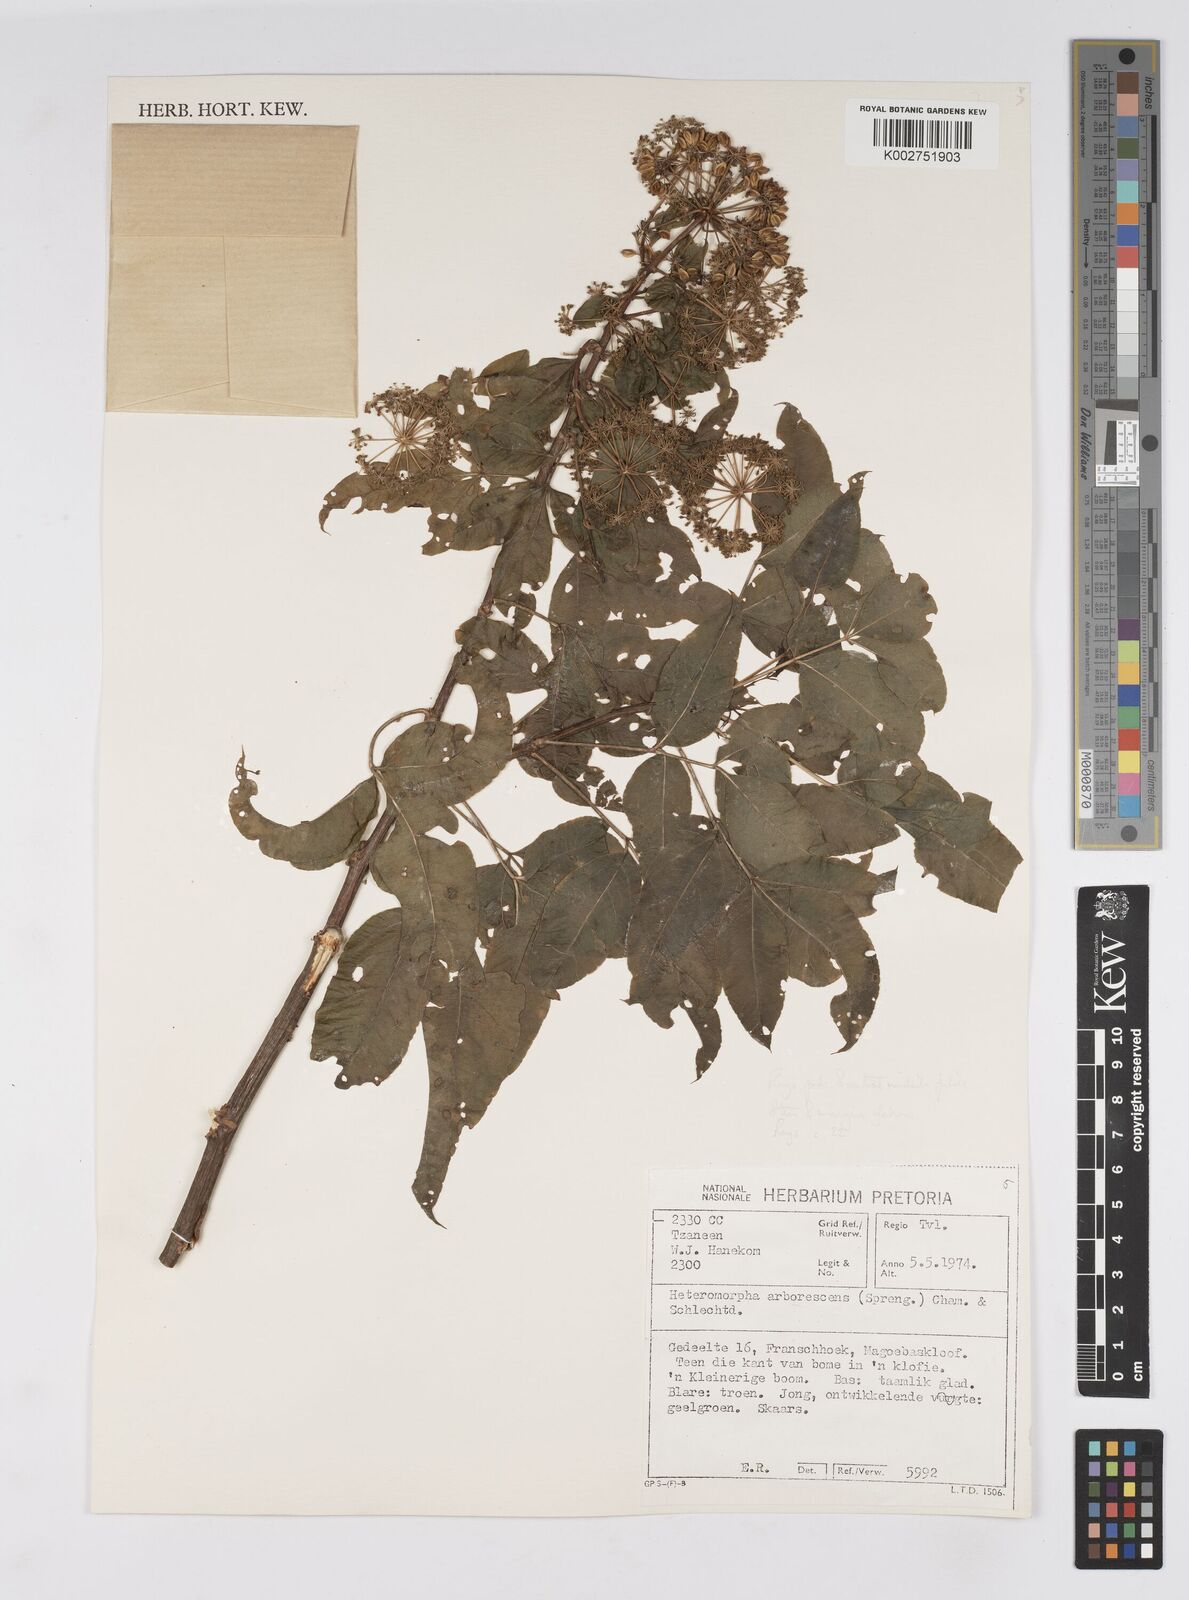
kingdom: Plantae
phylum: Tracheophyta
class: Magnoliopsida
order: Apiales
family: Apiaceae
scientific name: Apiaceae
